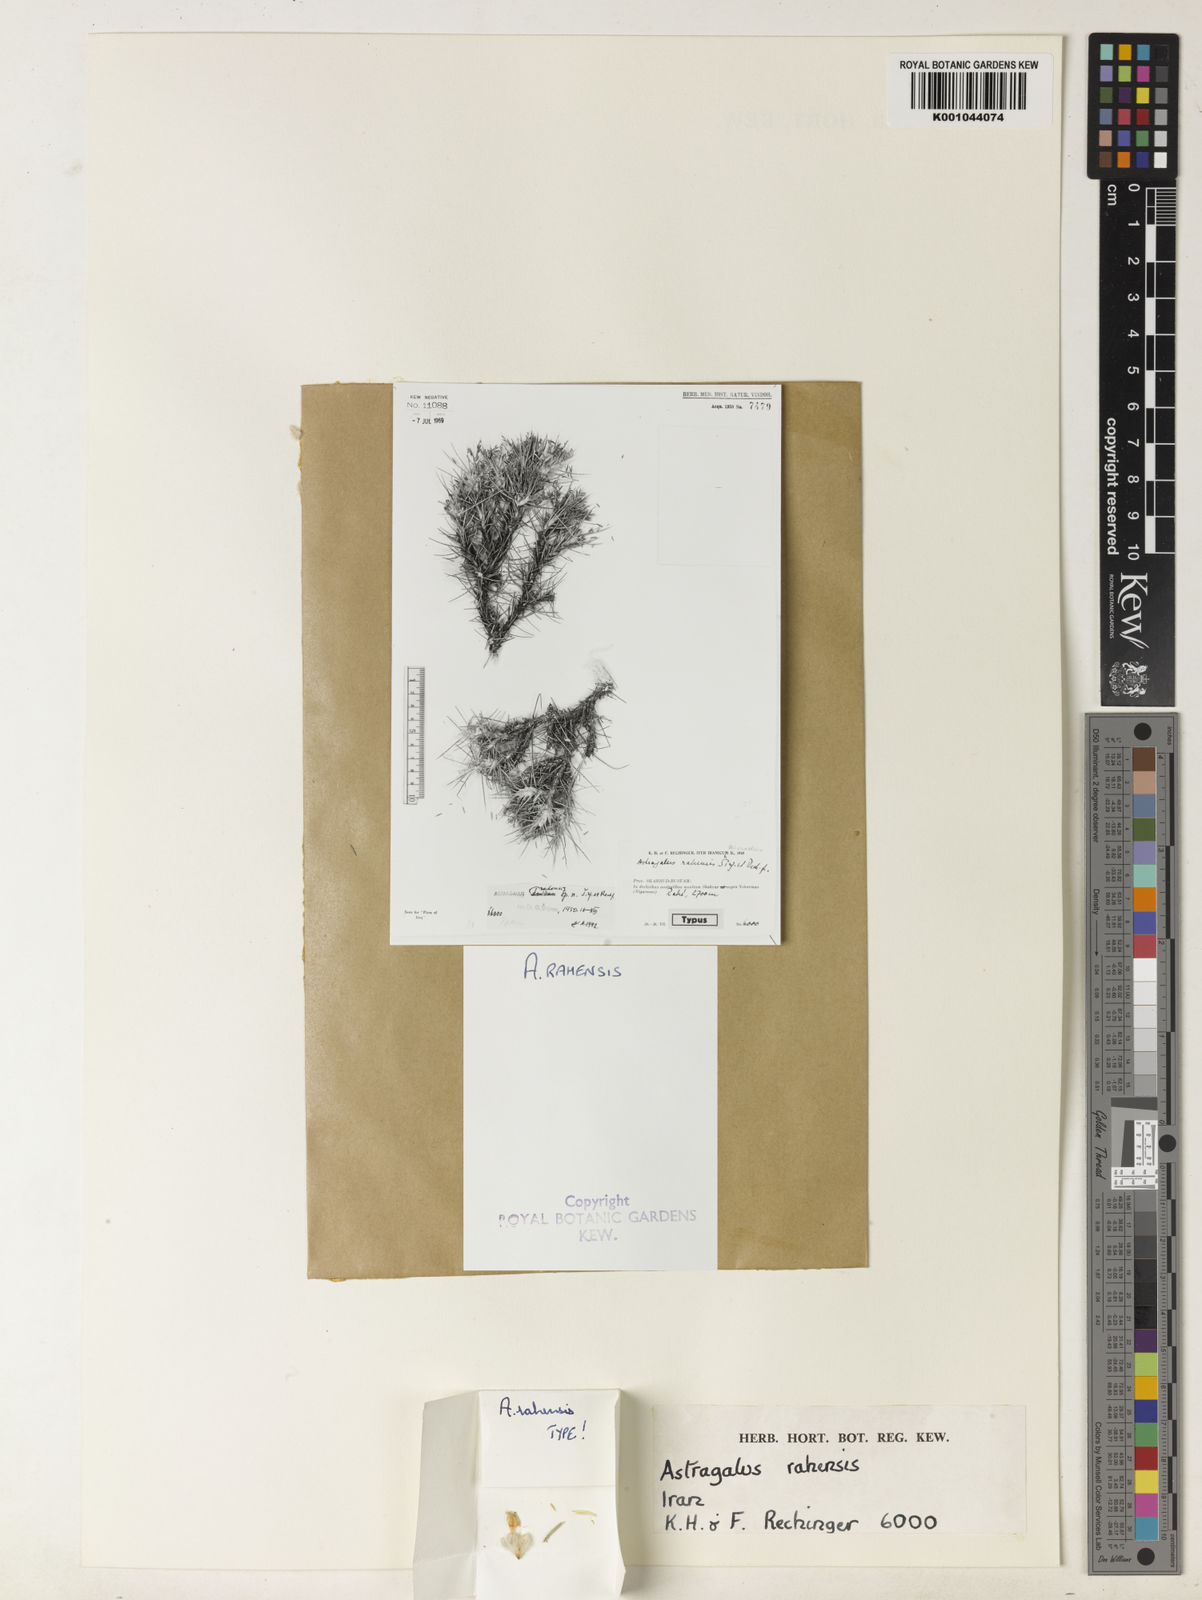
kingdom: Plantae
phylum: Tracheophyta
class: Magnoliopsida
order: Fabales
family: Fabaceae
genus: Astragalus
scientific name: Astragalus
